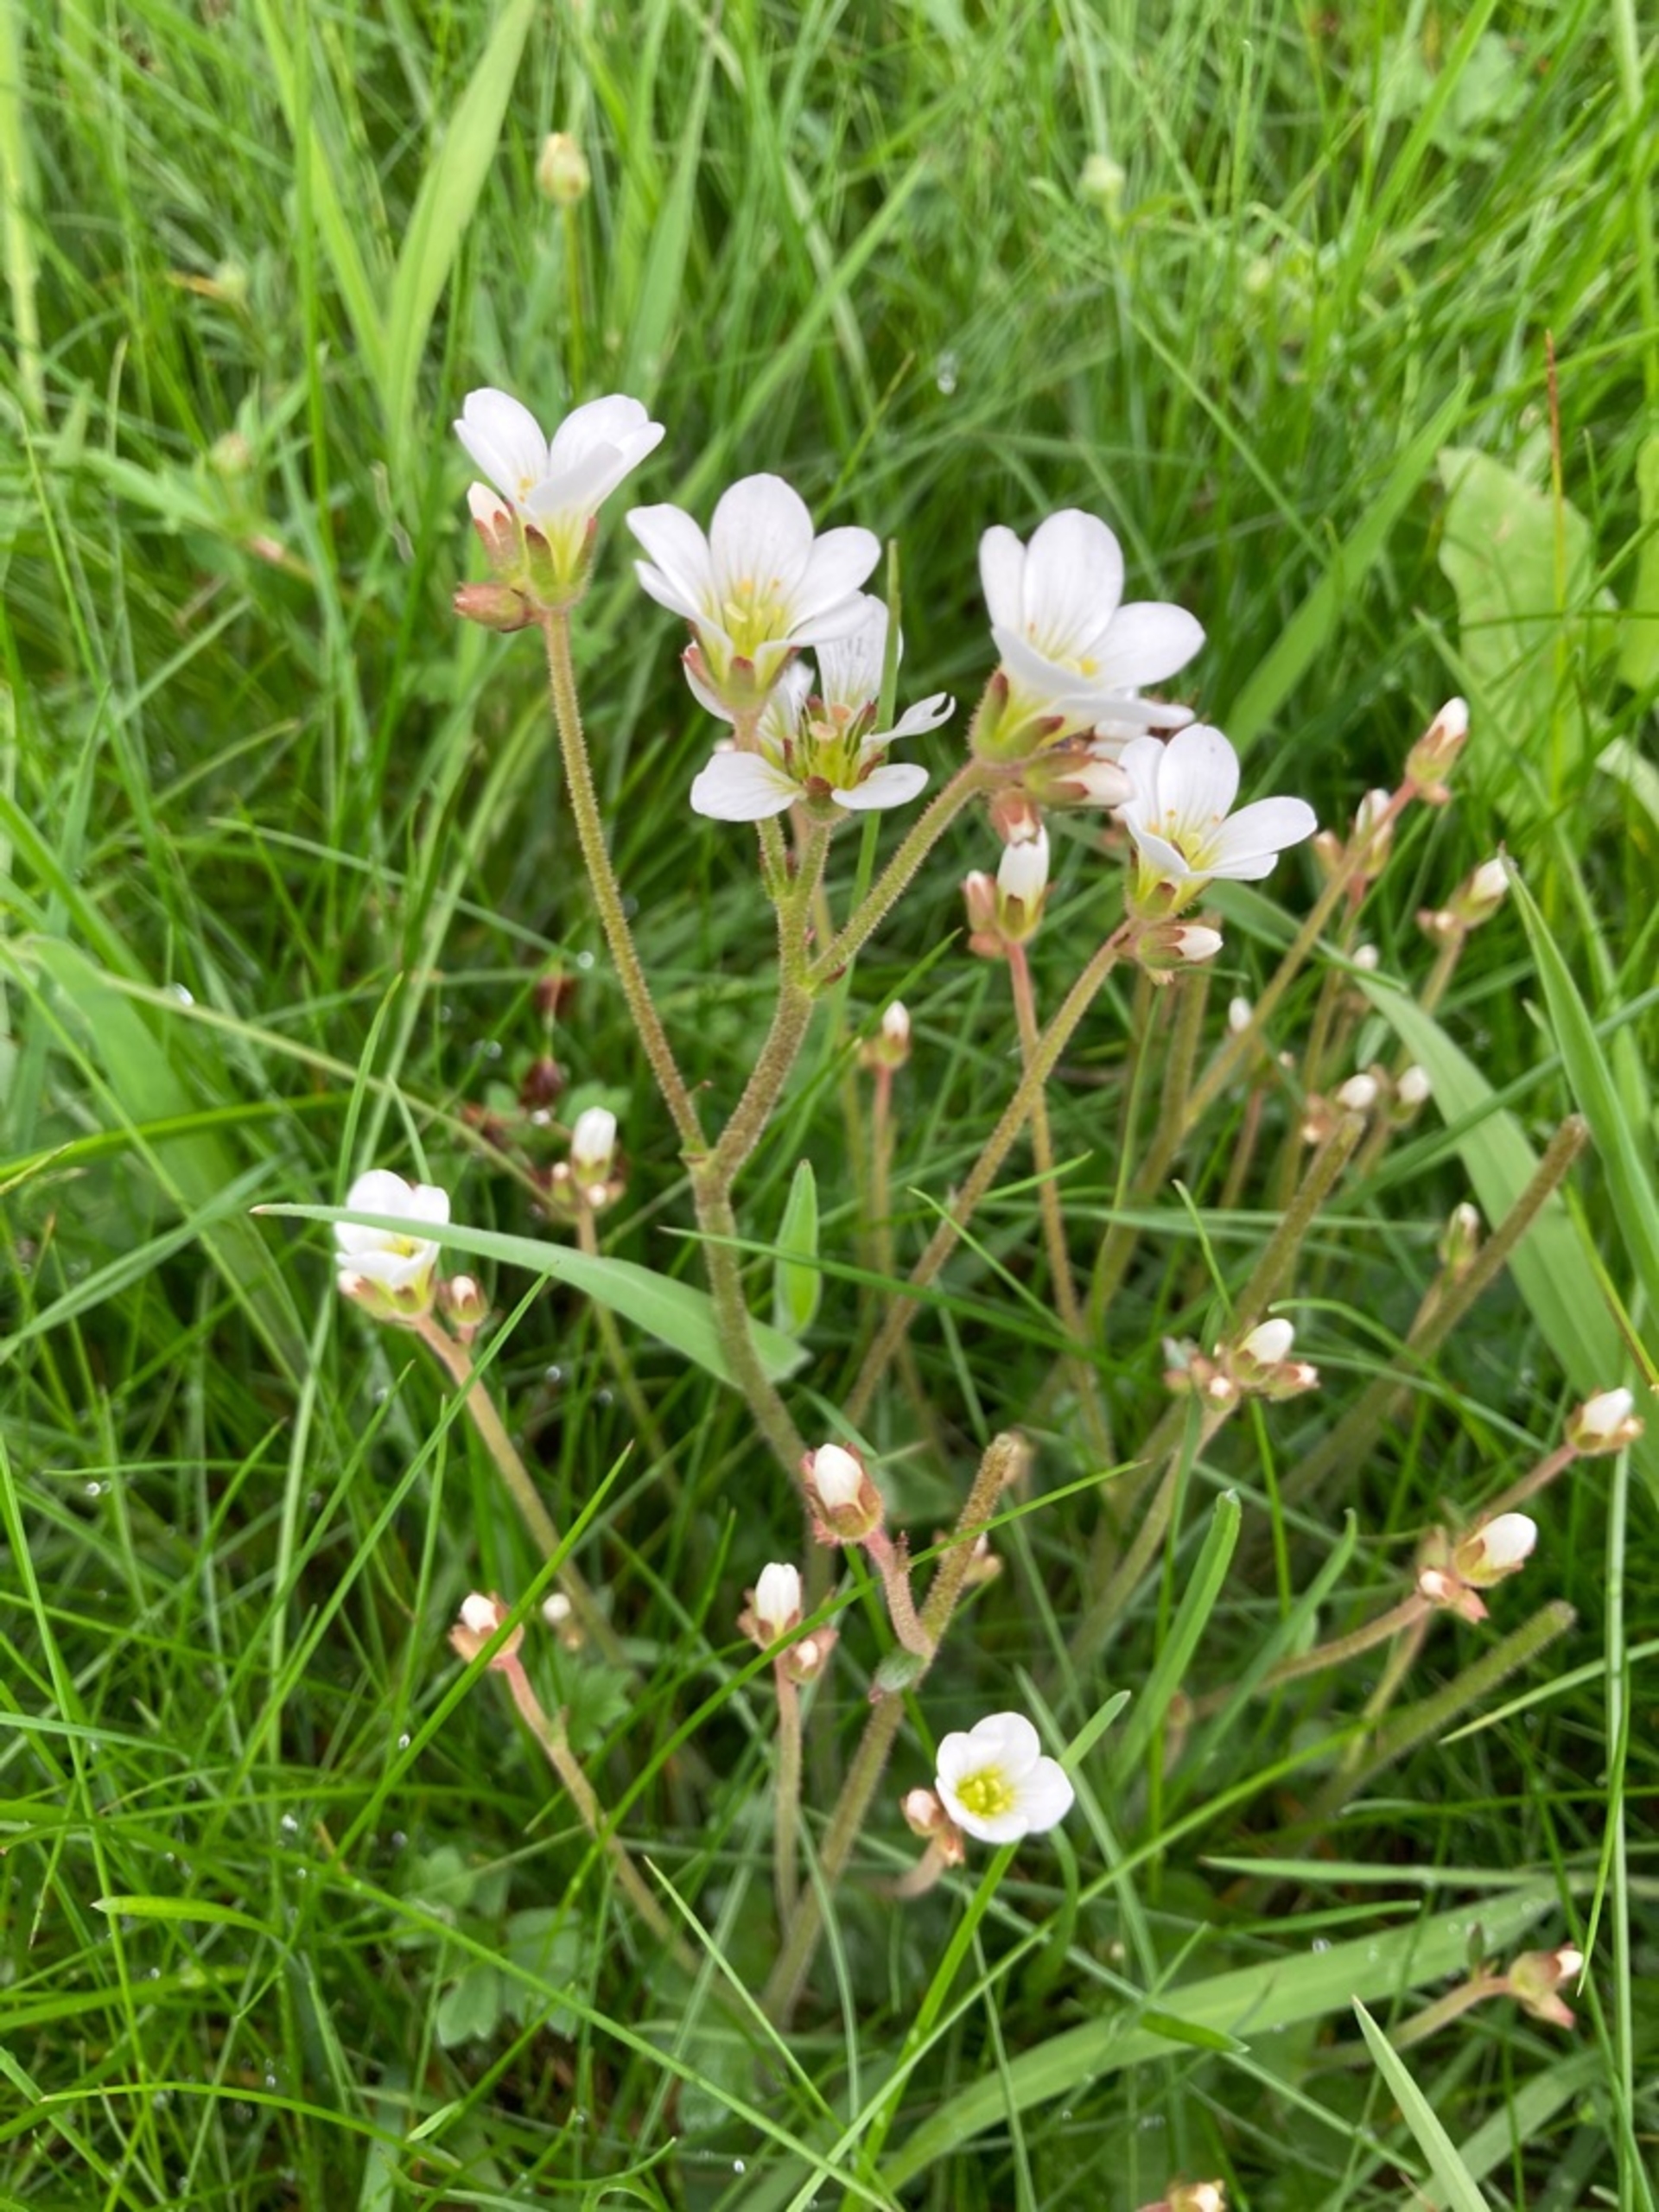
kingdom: Plantae
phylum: Tracheophyta
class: Magnoliopsida
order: Saxifragales
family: Saxifragaceae
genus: Saxifraga
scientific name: Saxifraga granulata
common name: Kornet stenbræk
